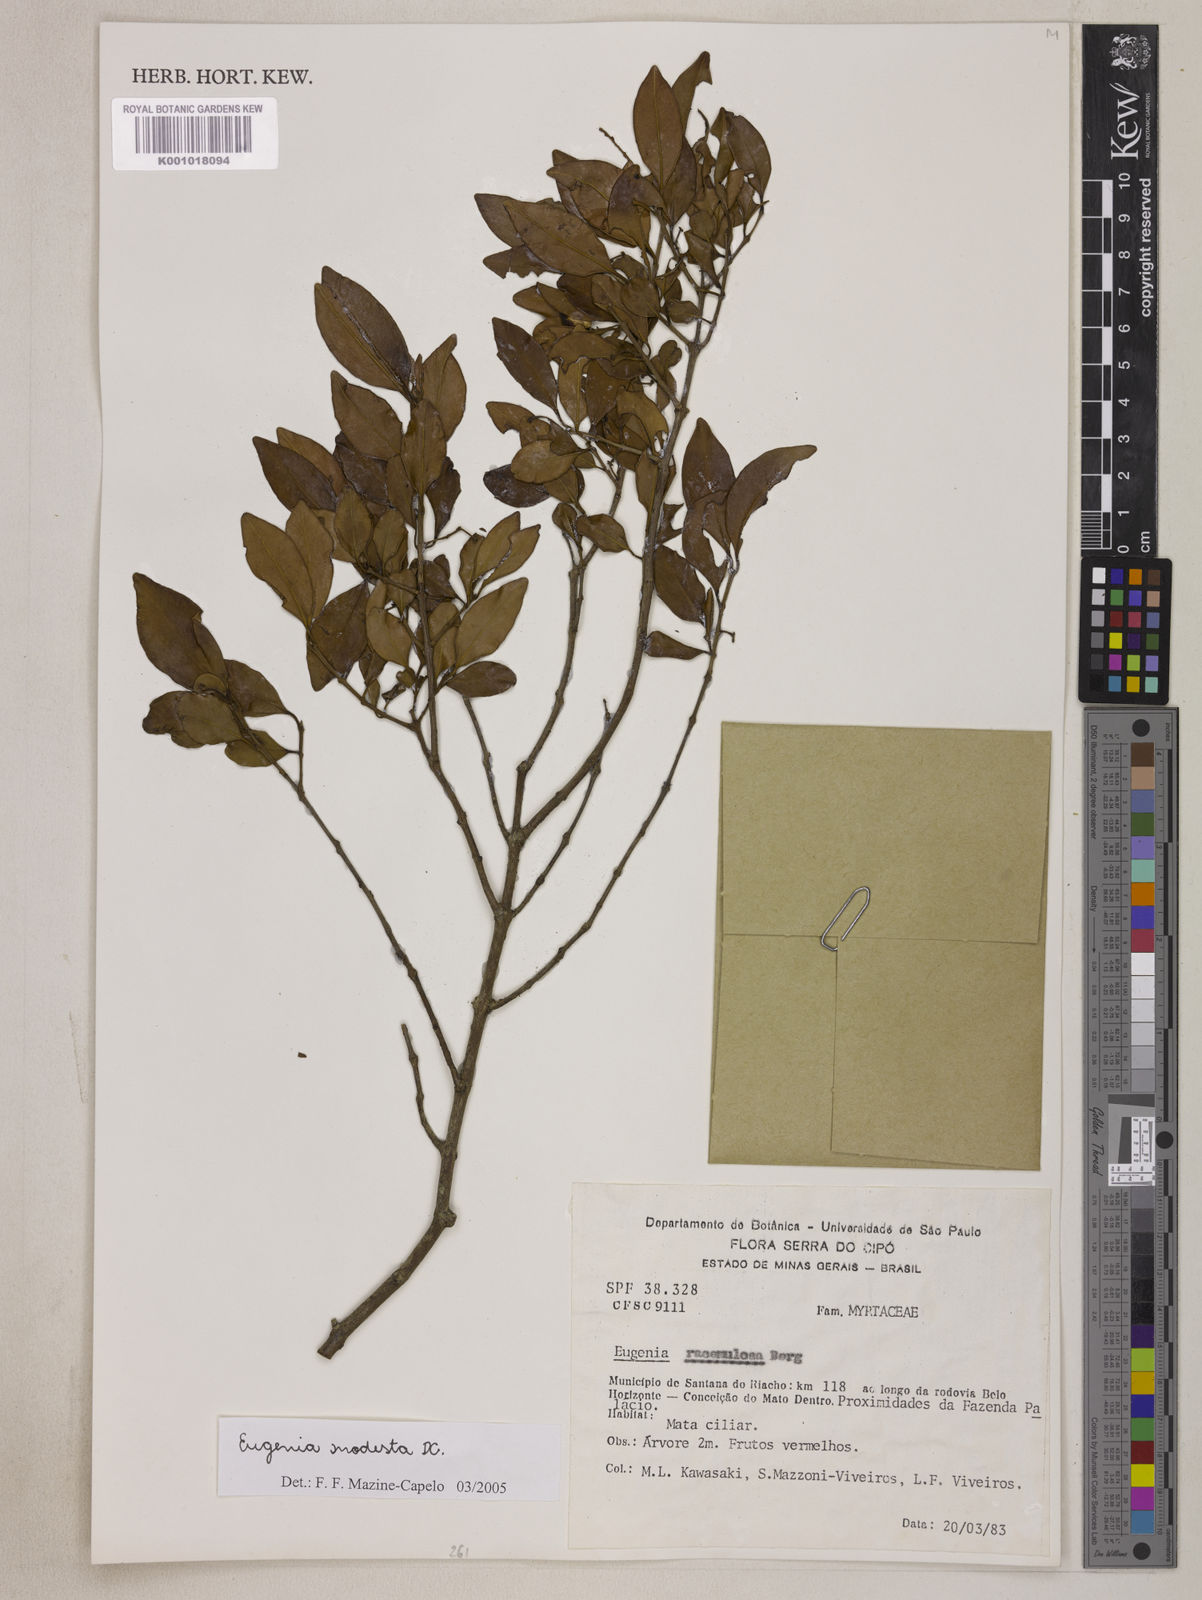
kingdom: Plantae
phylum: Tracheophyta
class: Magnoliopsida
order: Myrtales
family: Myrtaceae
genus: Eugenia
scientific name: Eugenia modesta
